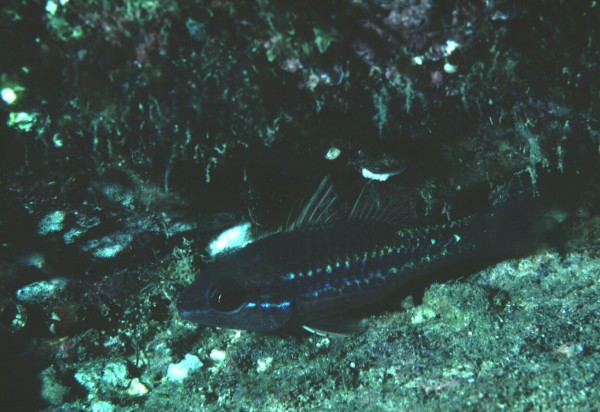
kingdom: Animalia
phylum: Chordata
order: Perciformes
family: Apogonidae
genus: Pristiapogon
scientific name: Pristiapogon kallopterus
